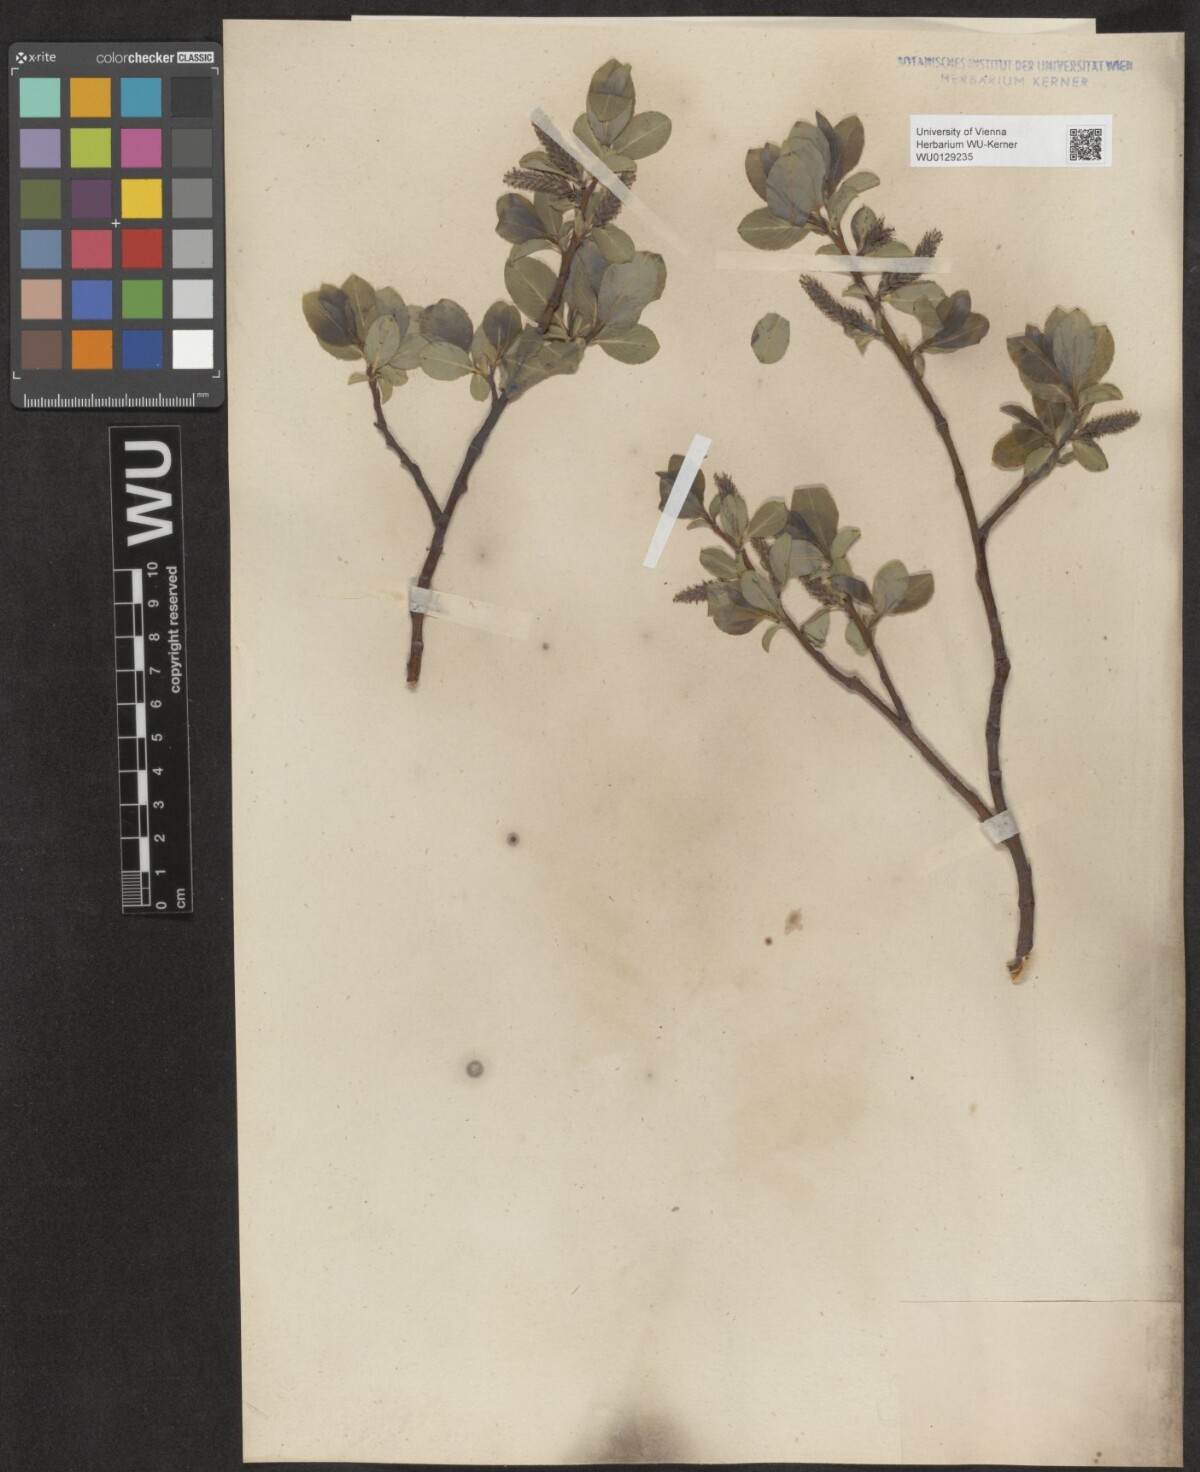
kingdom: Plantae
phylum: Tracheophyta
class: Magnoliopsida
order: Malpighiales
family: Salicaceae
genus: Salix
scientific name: Salix glabra
